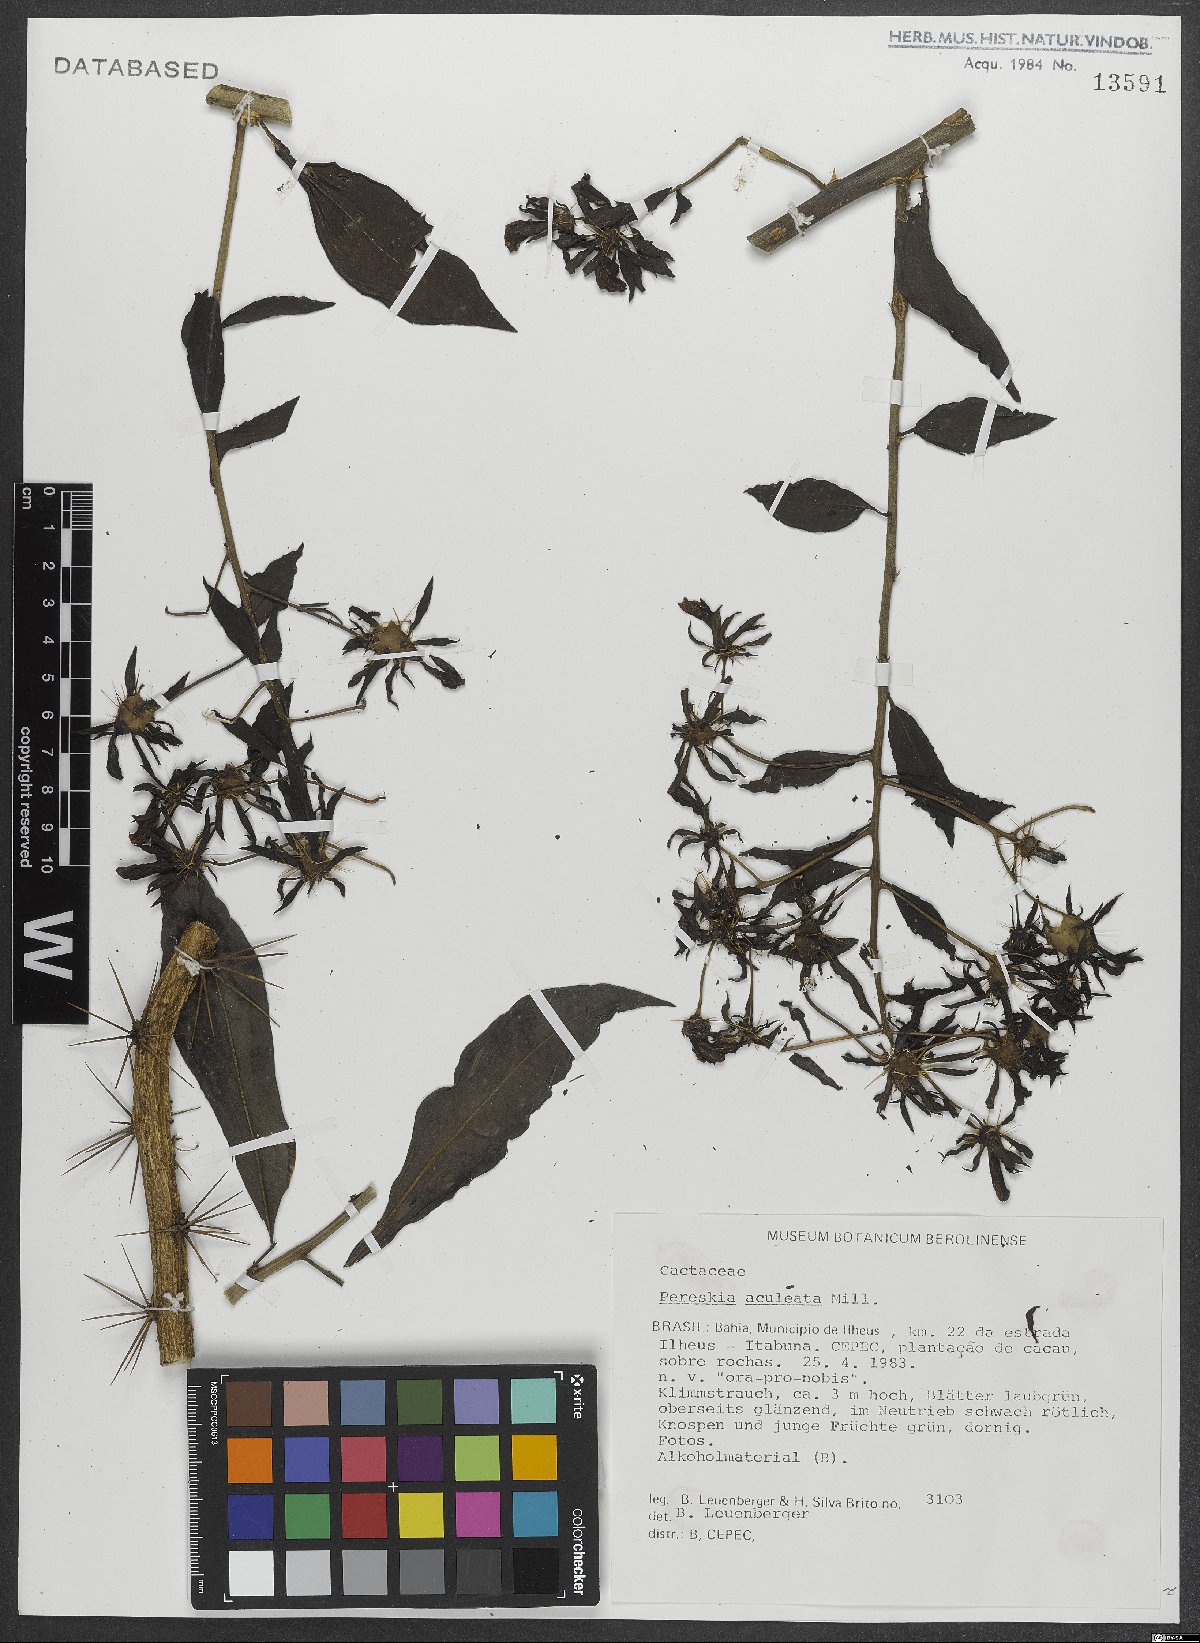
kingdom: Plantae
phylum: Tracheophyta
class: Magnoliopsida
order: Caryophyllales
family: Cactaceae
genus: Pereskia
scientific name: Pereskia aculeata
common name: Barbados gooseberry
